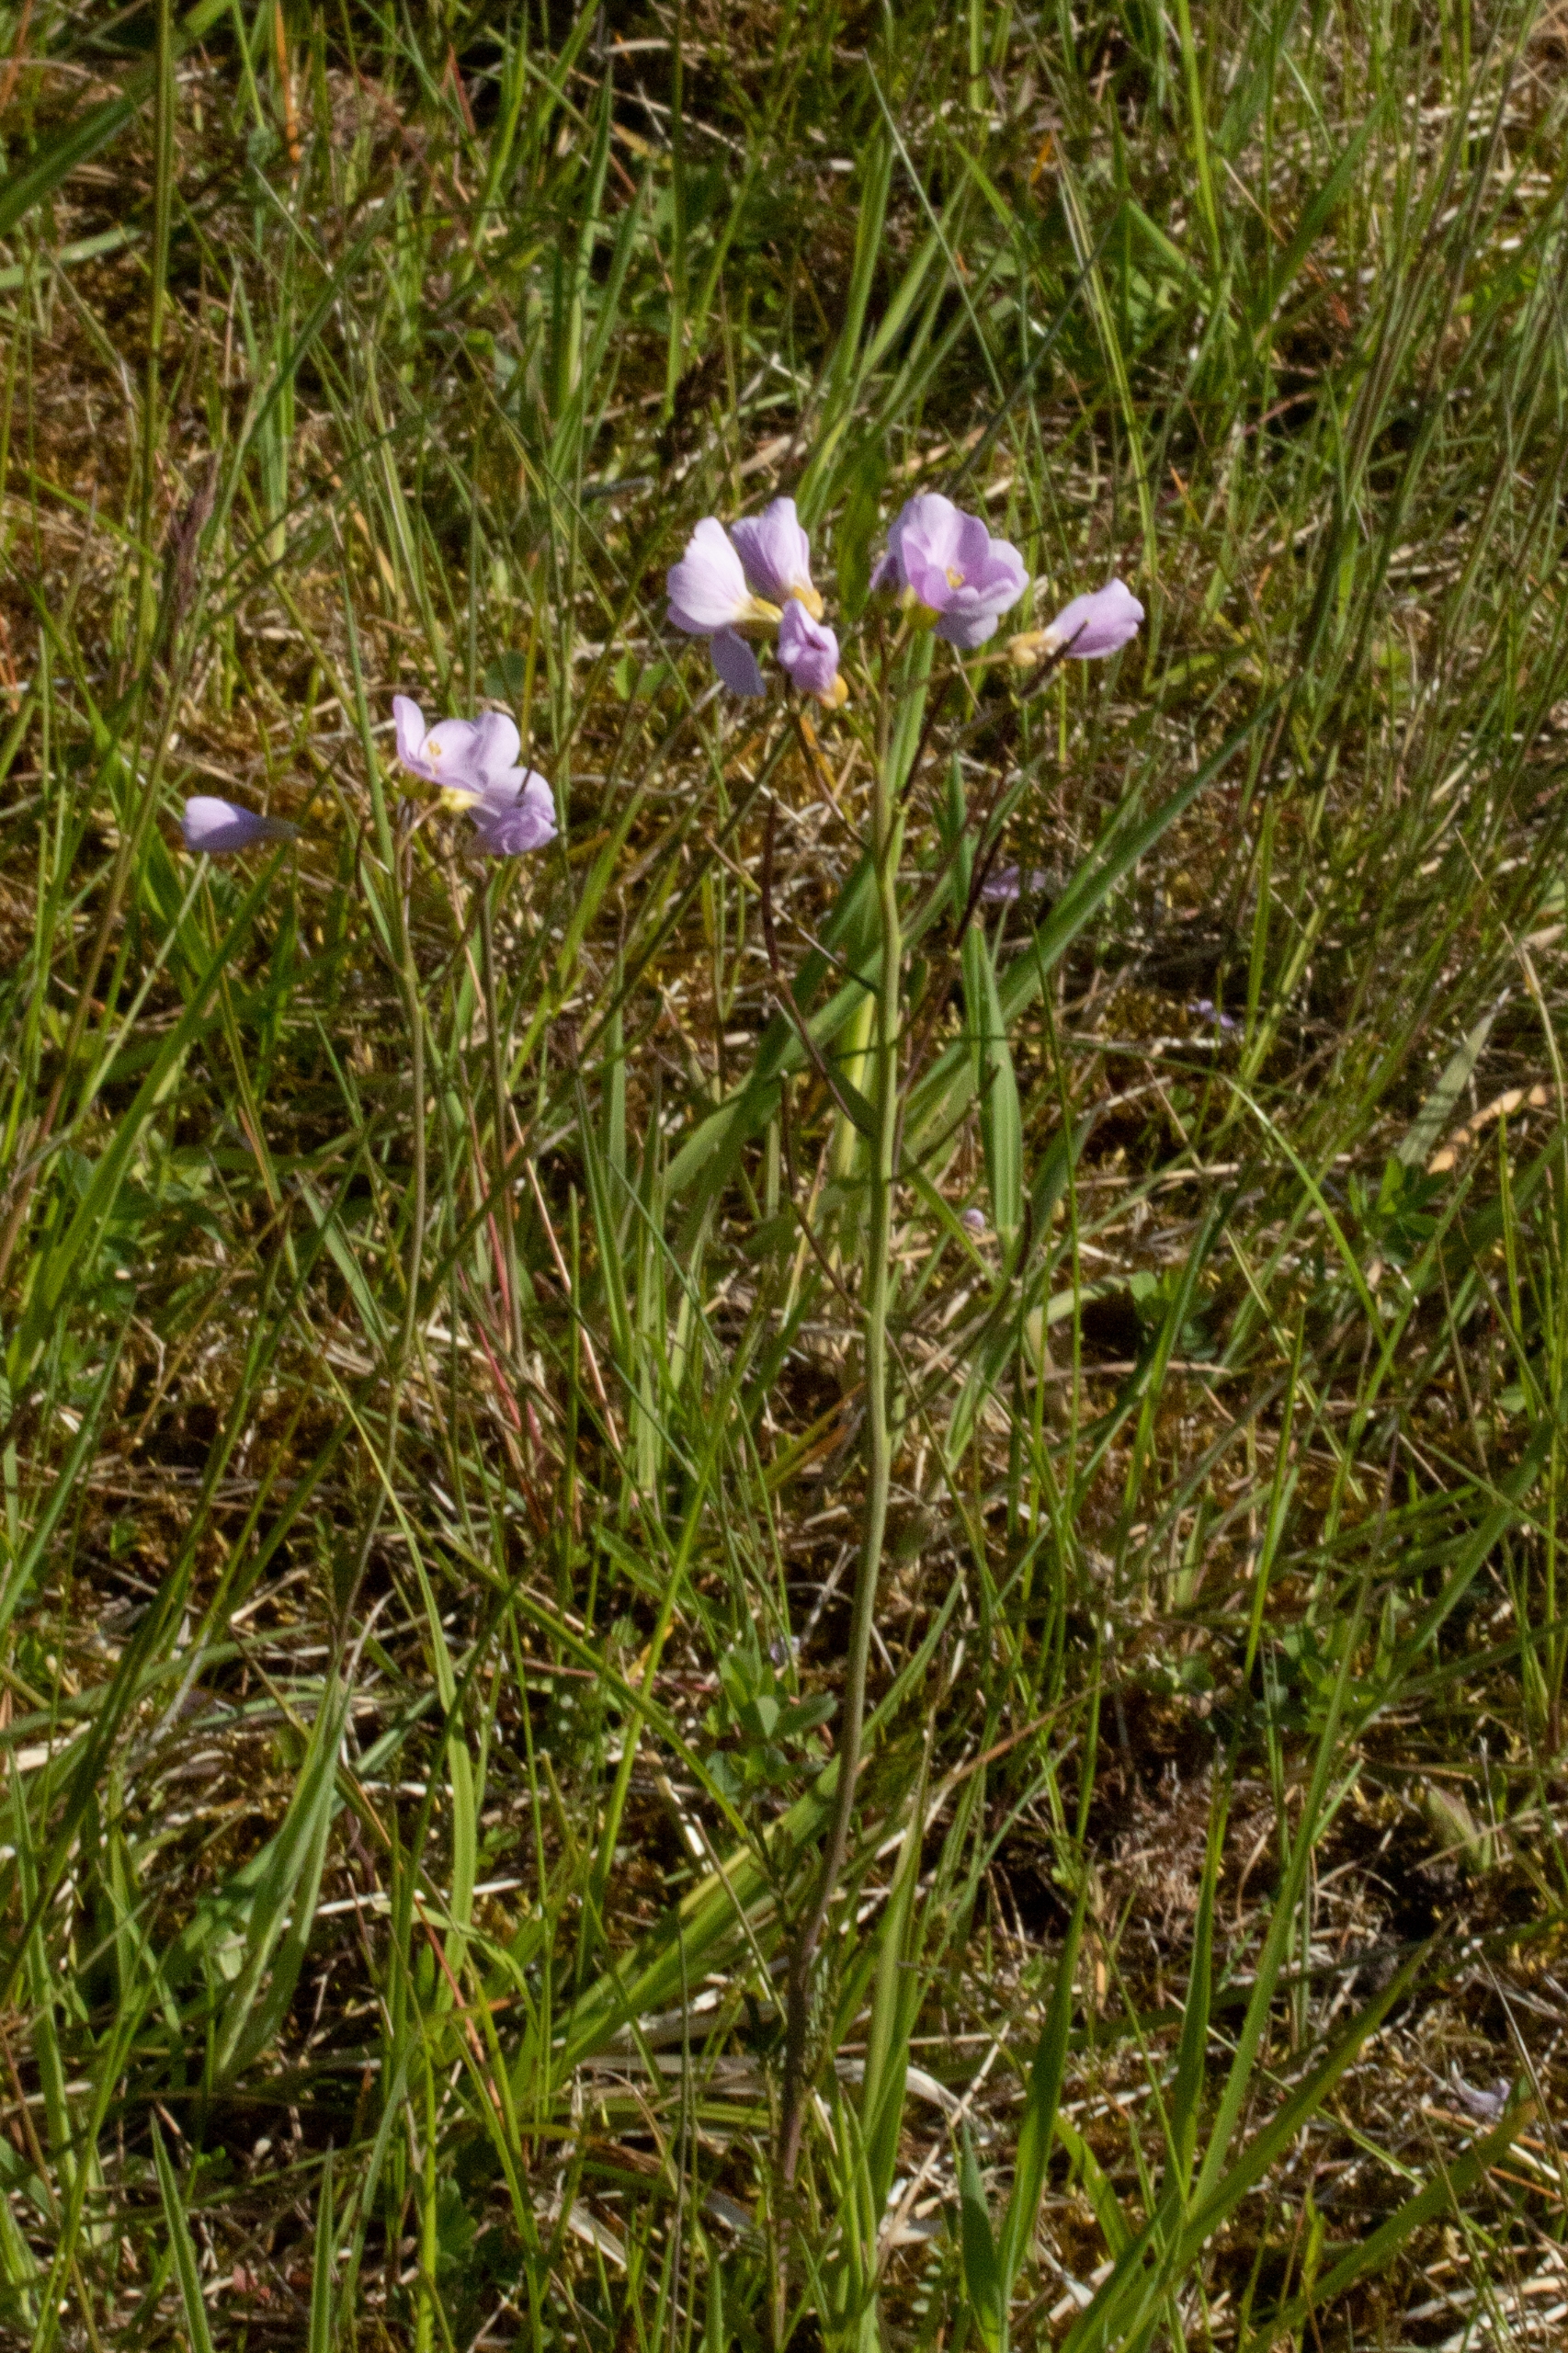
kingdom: Plantae
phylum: Tracheophyta
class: Magnoliopsida
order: Brassicales
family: Brassicaceae
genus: Cardamine
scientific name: Cardamine pratensis
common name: Engkarse
